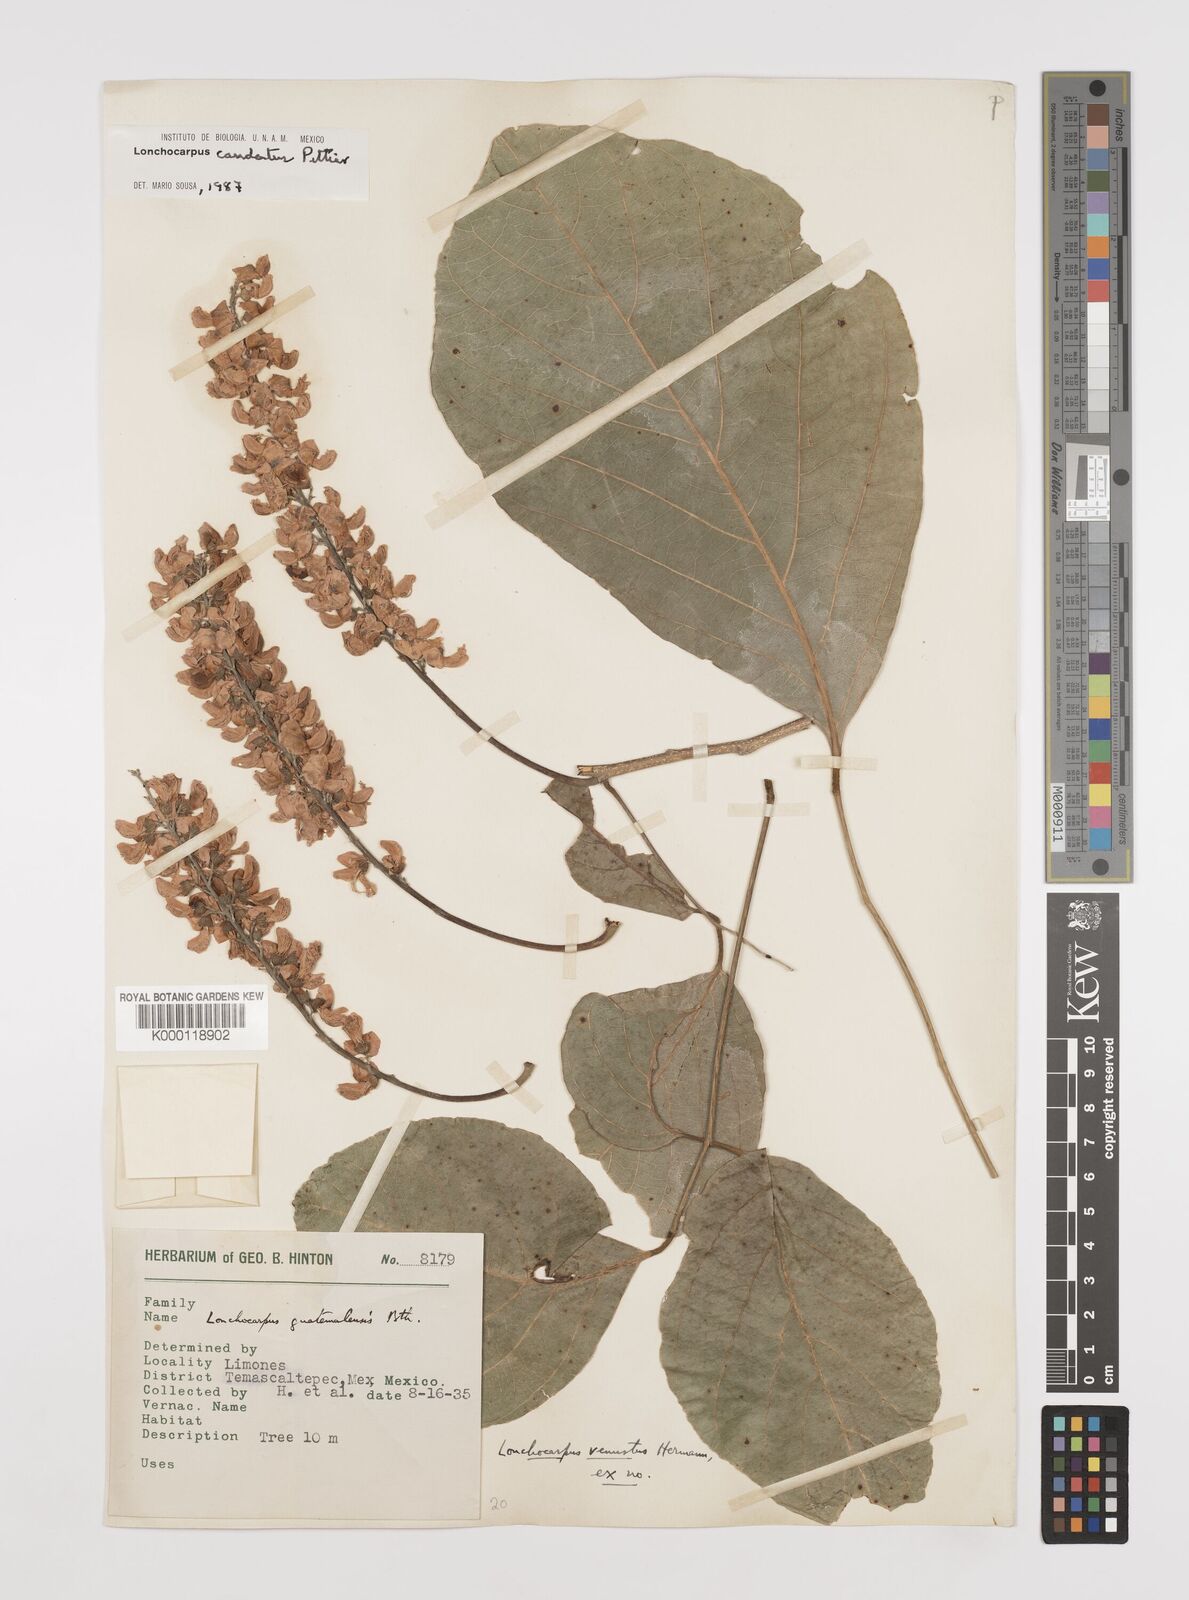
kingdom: Plantae
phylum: Tracheophyta
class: Magnoliopsida
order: Fabales
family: Fabaceae
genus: Lonchocarpus
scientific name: Lonchocarpus caudatus
